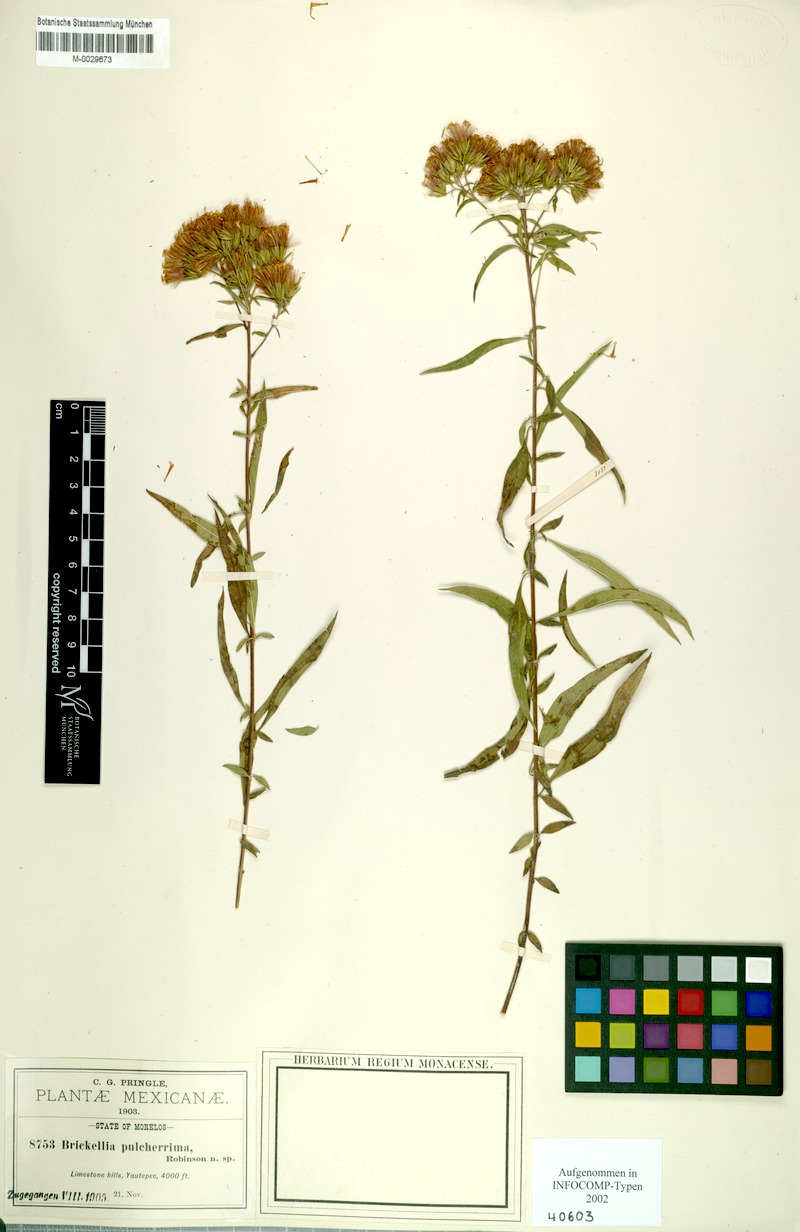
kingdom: Plantae
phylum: Tracheophyta
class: Magnoliopsida
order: Asterales
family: Asteraceae
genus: Steviopsis
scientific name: Steviopsis vigintiseta
